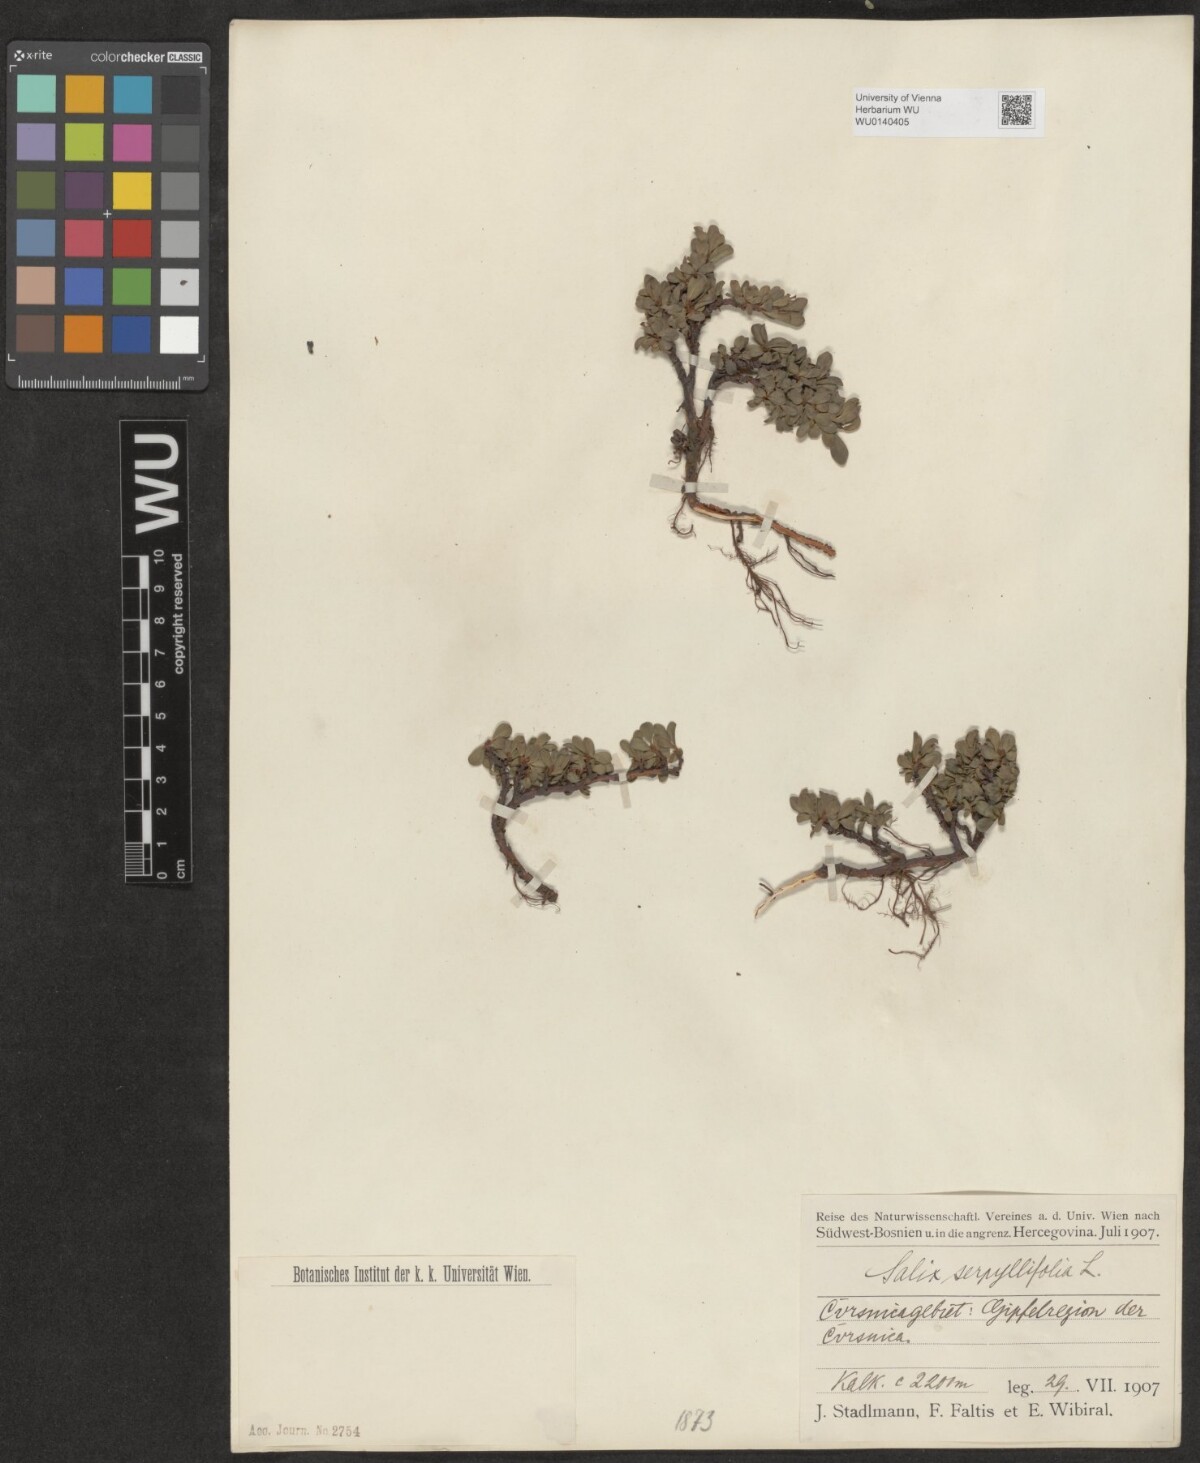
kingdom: Plantae
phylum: Tracheophyta
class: Magnoliopsida
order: Malpighiales
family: Salicaceae
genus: Salix
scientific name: Salix serpillifolia
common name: Thyme-leaf willow
